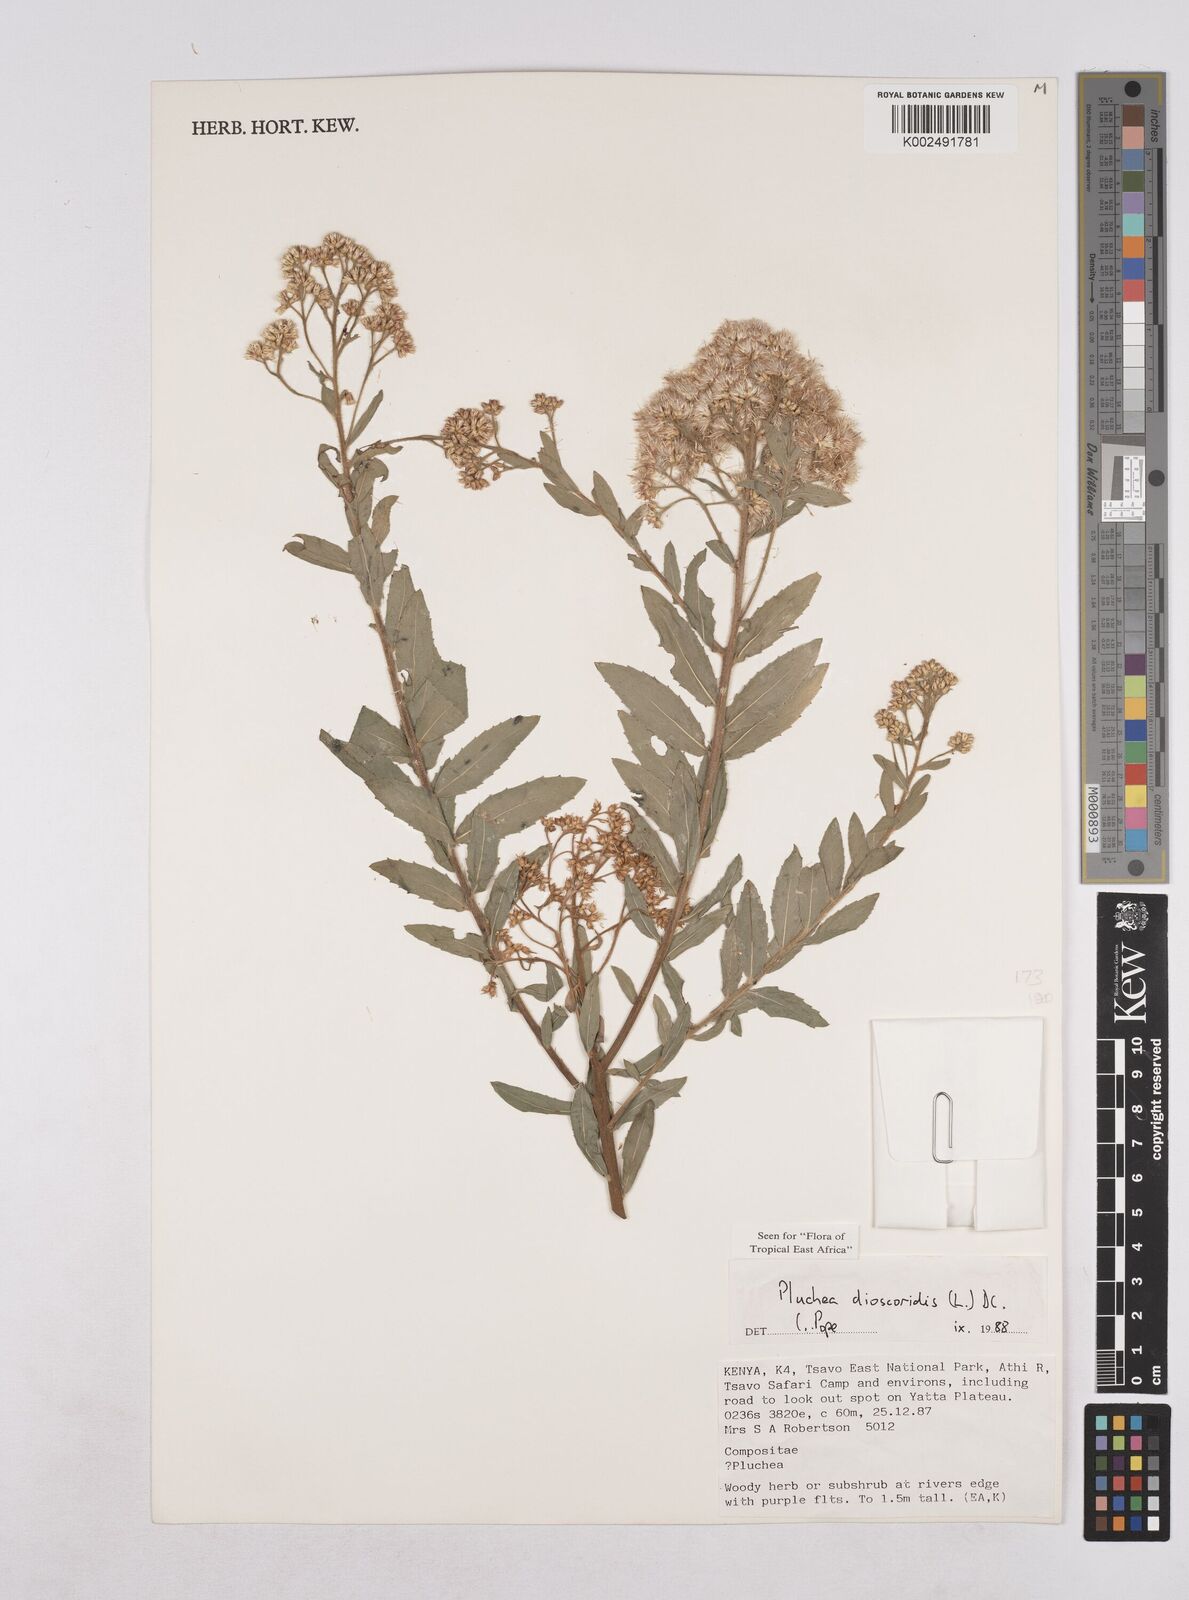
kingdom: Plantae
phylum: Tracheophyta
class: Magnoliopsida
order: Asterales
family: Asteraceae
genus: Pluchea
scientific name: Pluchea dioscoridis
